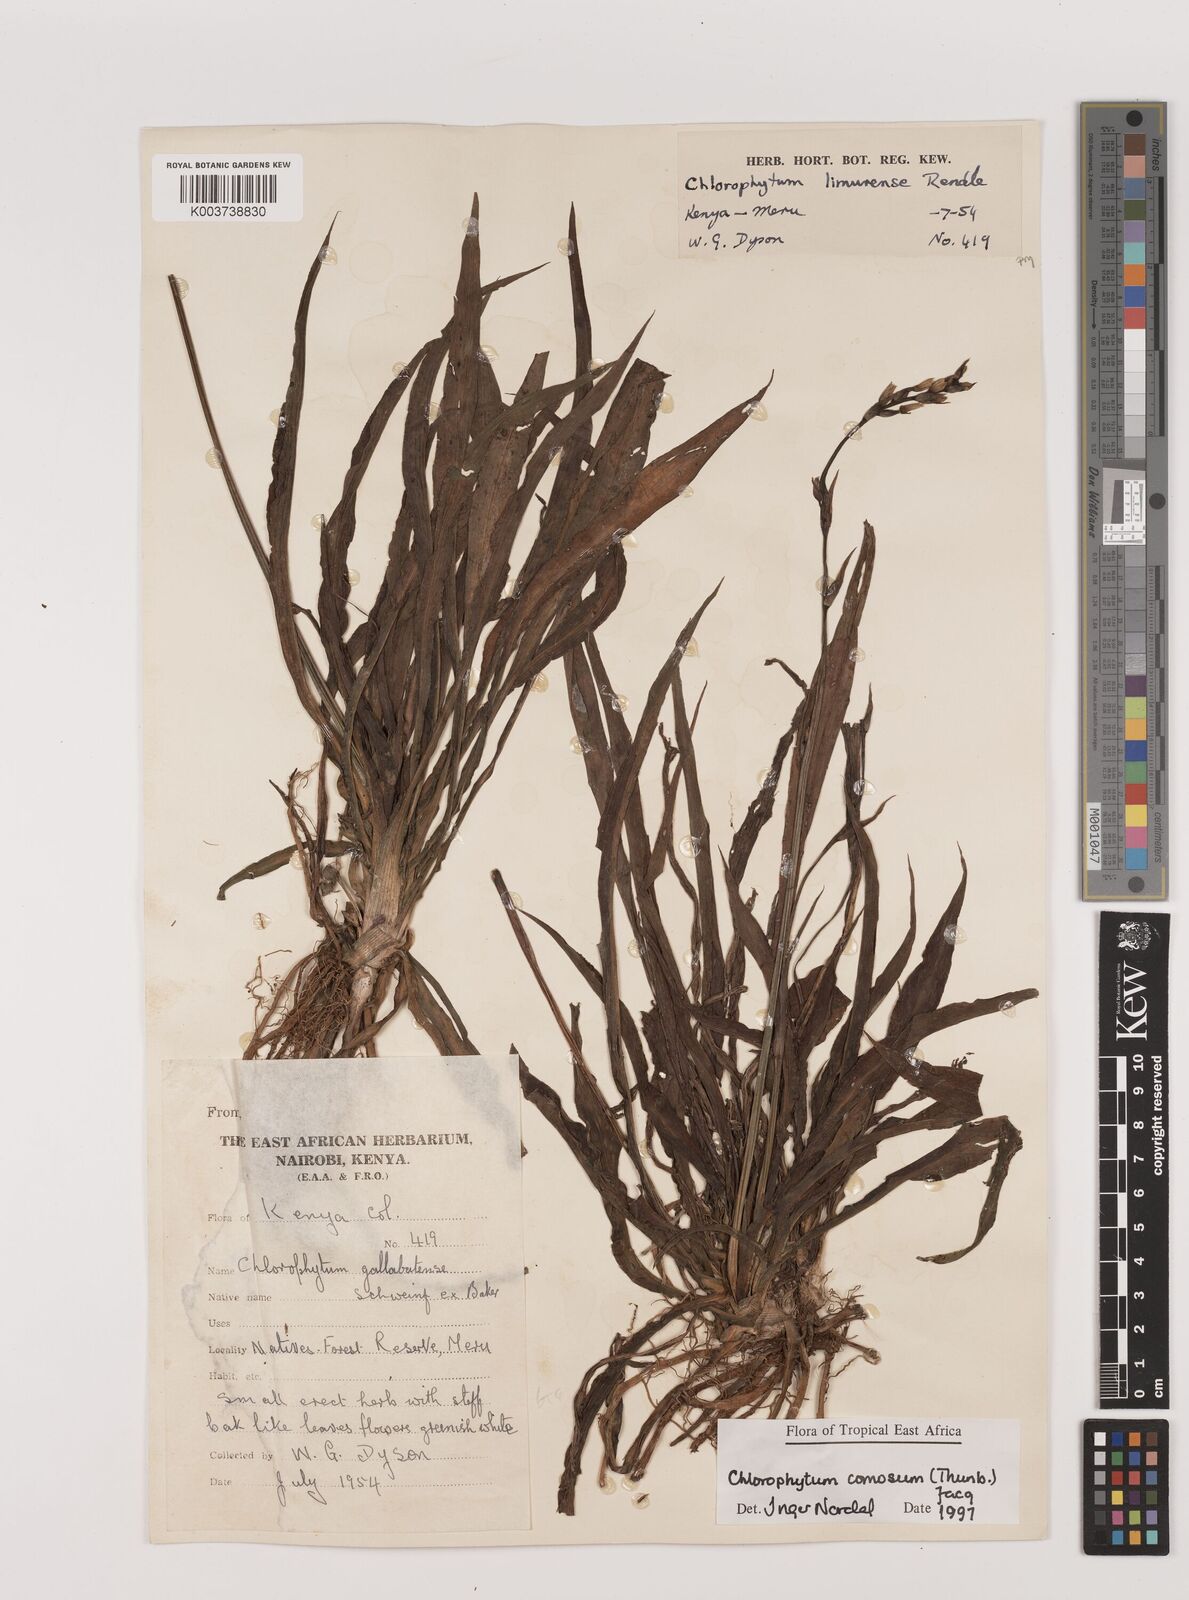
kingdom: Plantae
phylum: Tracheophyta
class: Liliopsida
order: Asparagales
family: Asparagaceae
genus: Chlorophytum
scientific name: Chlorophytum comosum
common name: Spider plant
